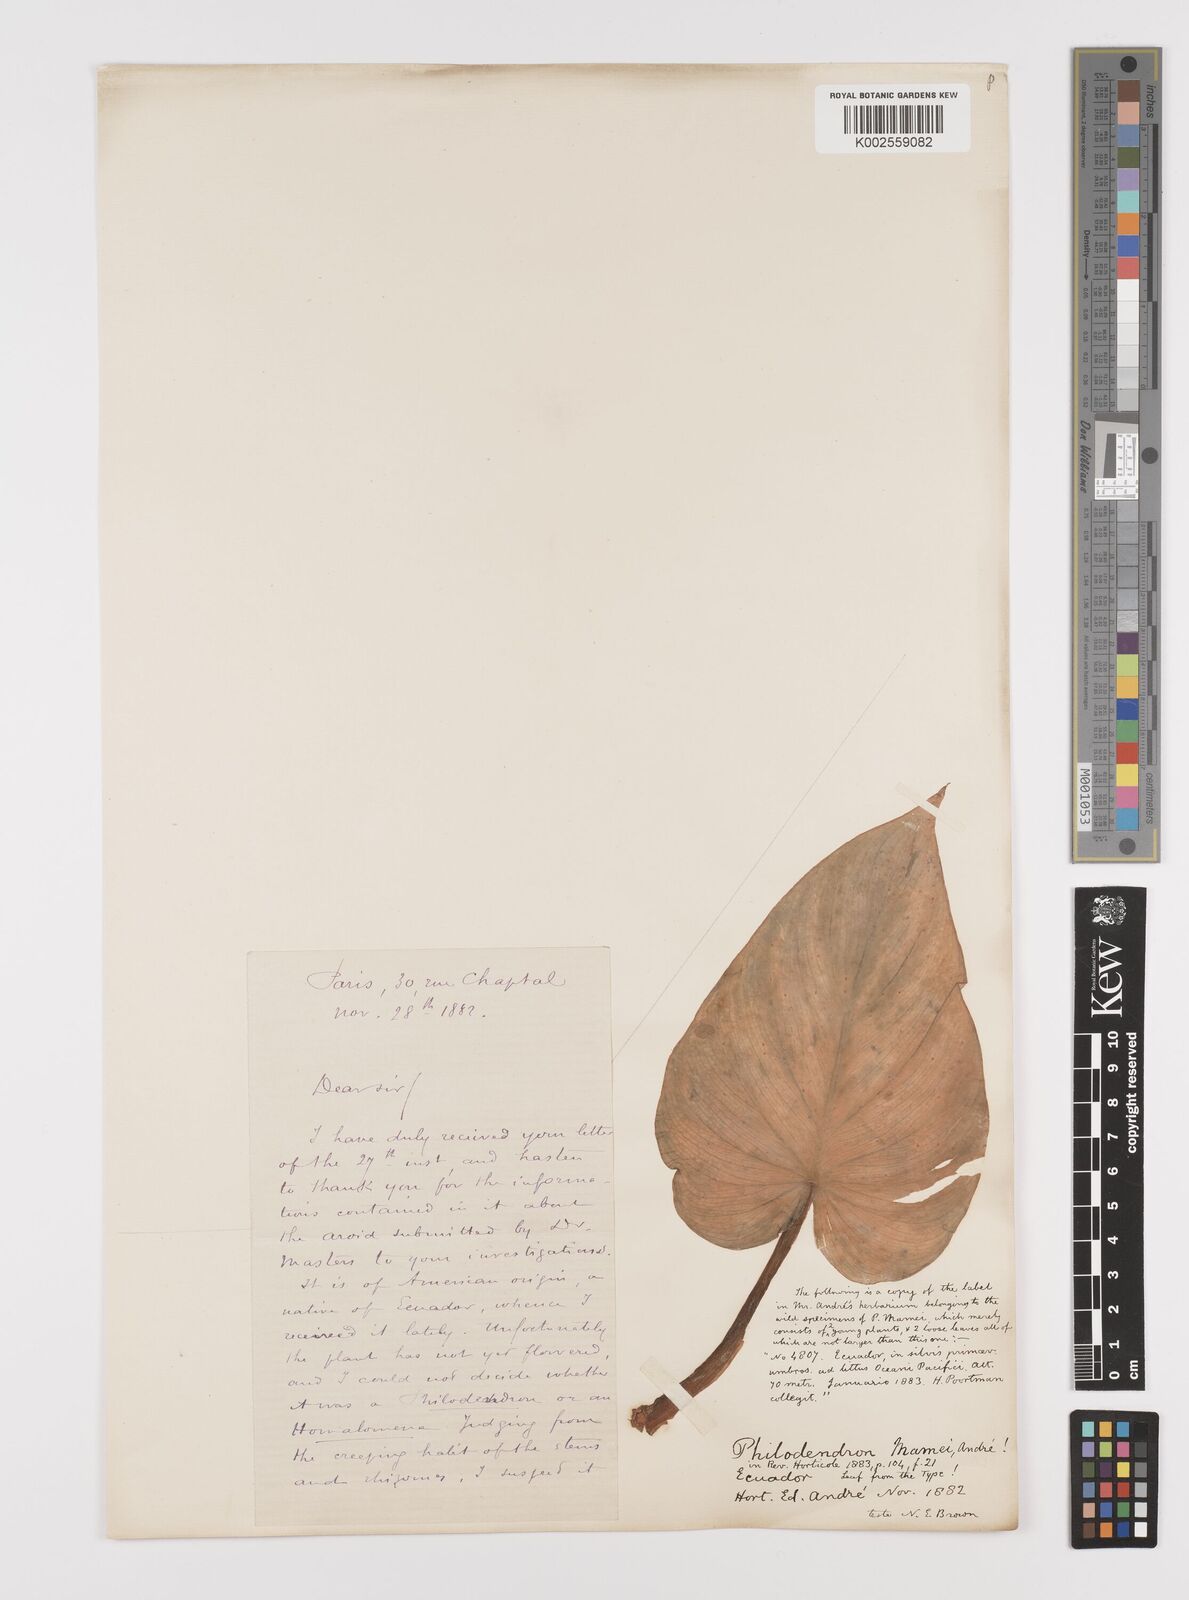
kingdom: Plantae
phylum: Tracheophyta
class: Liliopsida
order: Alismatales
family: Araceae
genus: Philodendron
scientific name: Philodendron mamei
